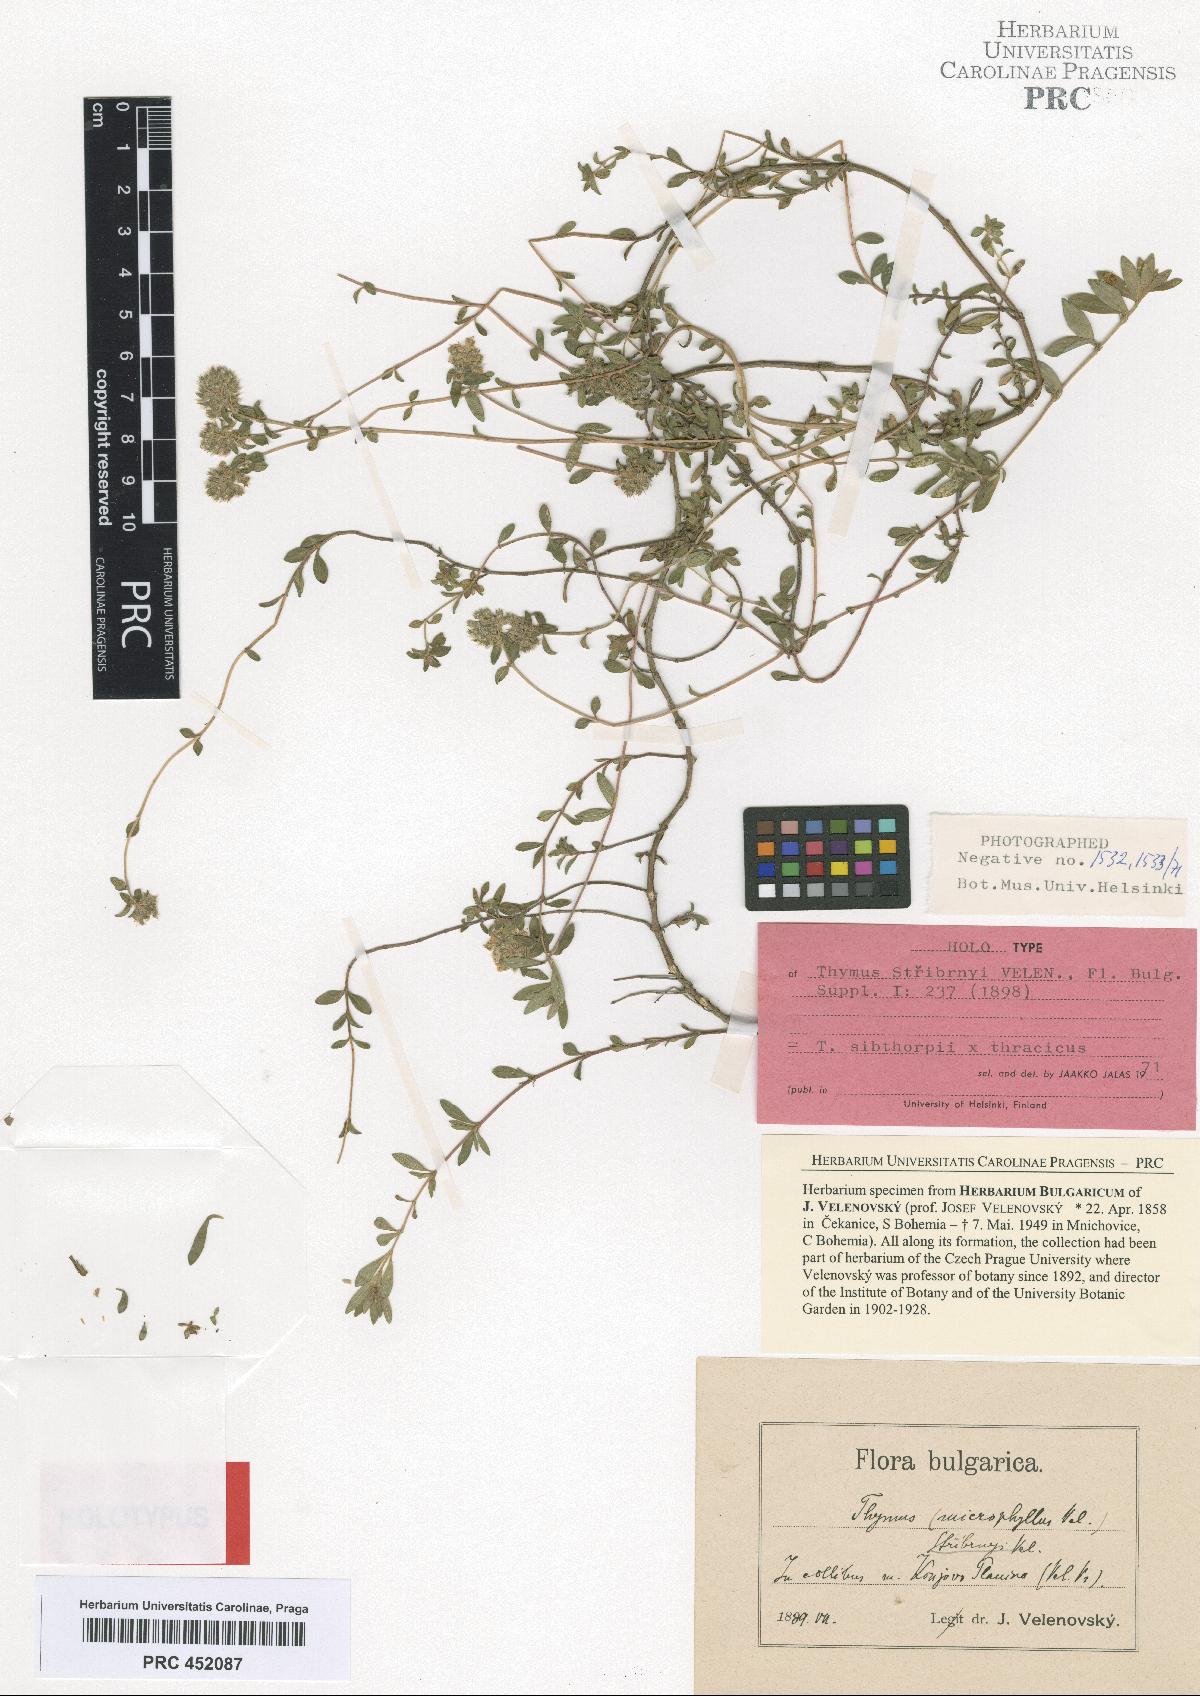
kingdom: Plantae
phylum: Tracheophyta
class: Magnoliopsida
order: Lamiales
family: Lamiaceae
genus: Thymus
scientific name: Thymus stribrnyi
